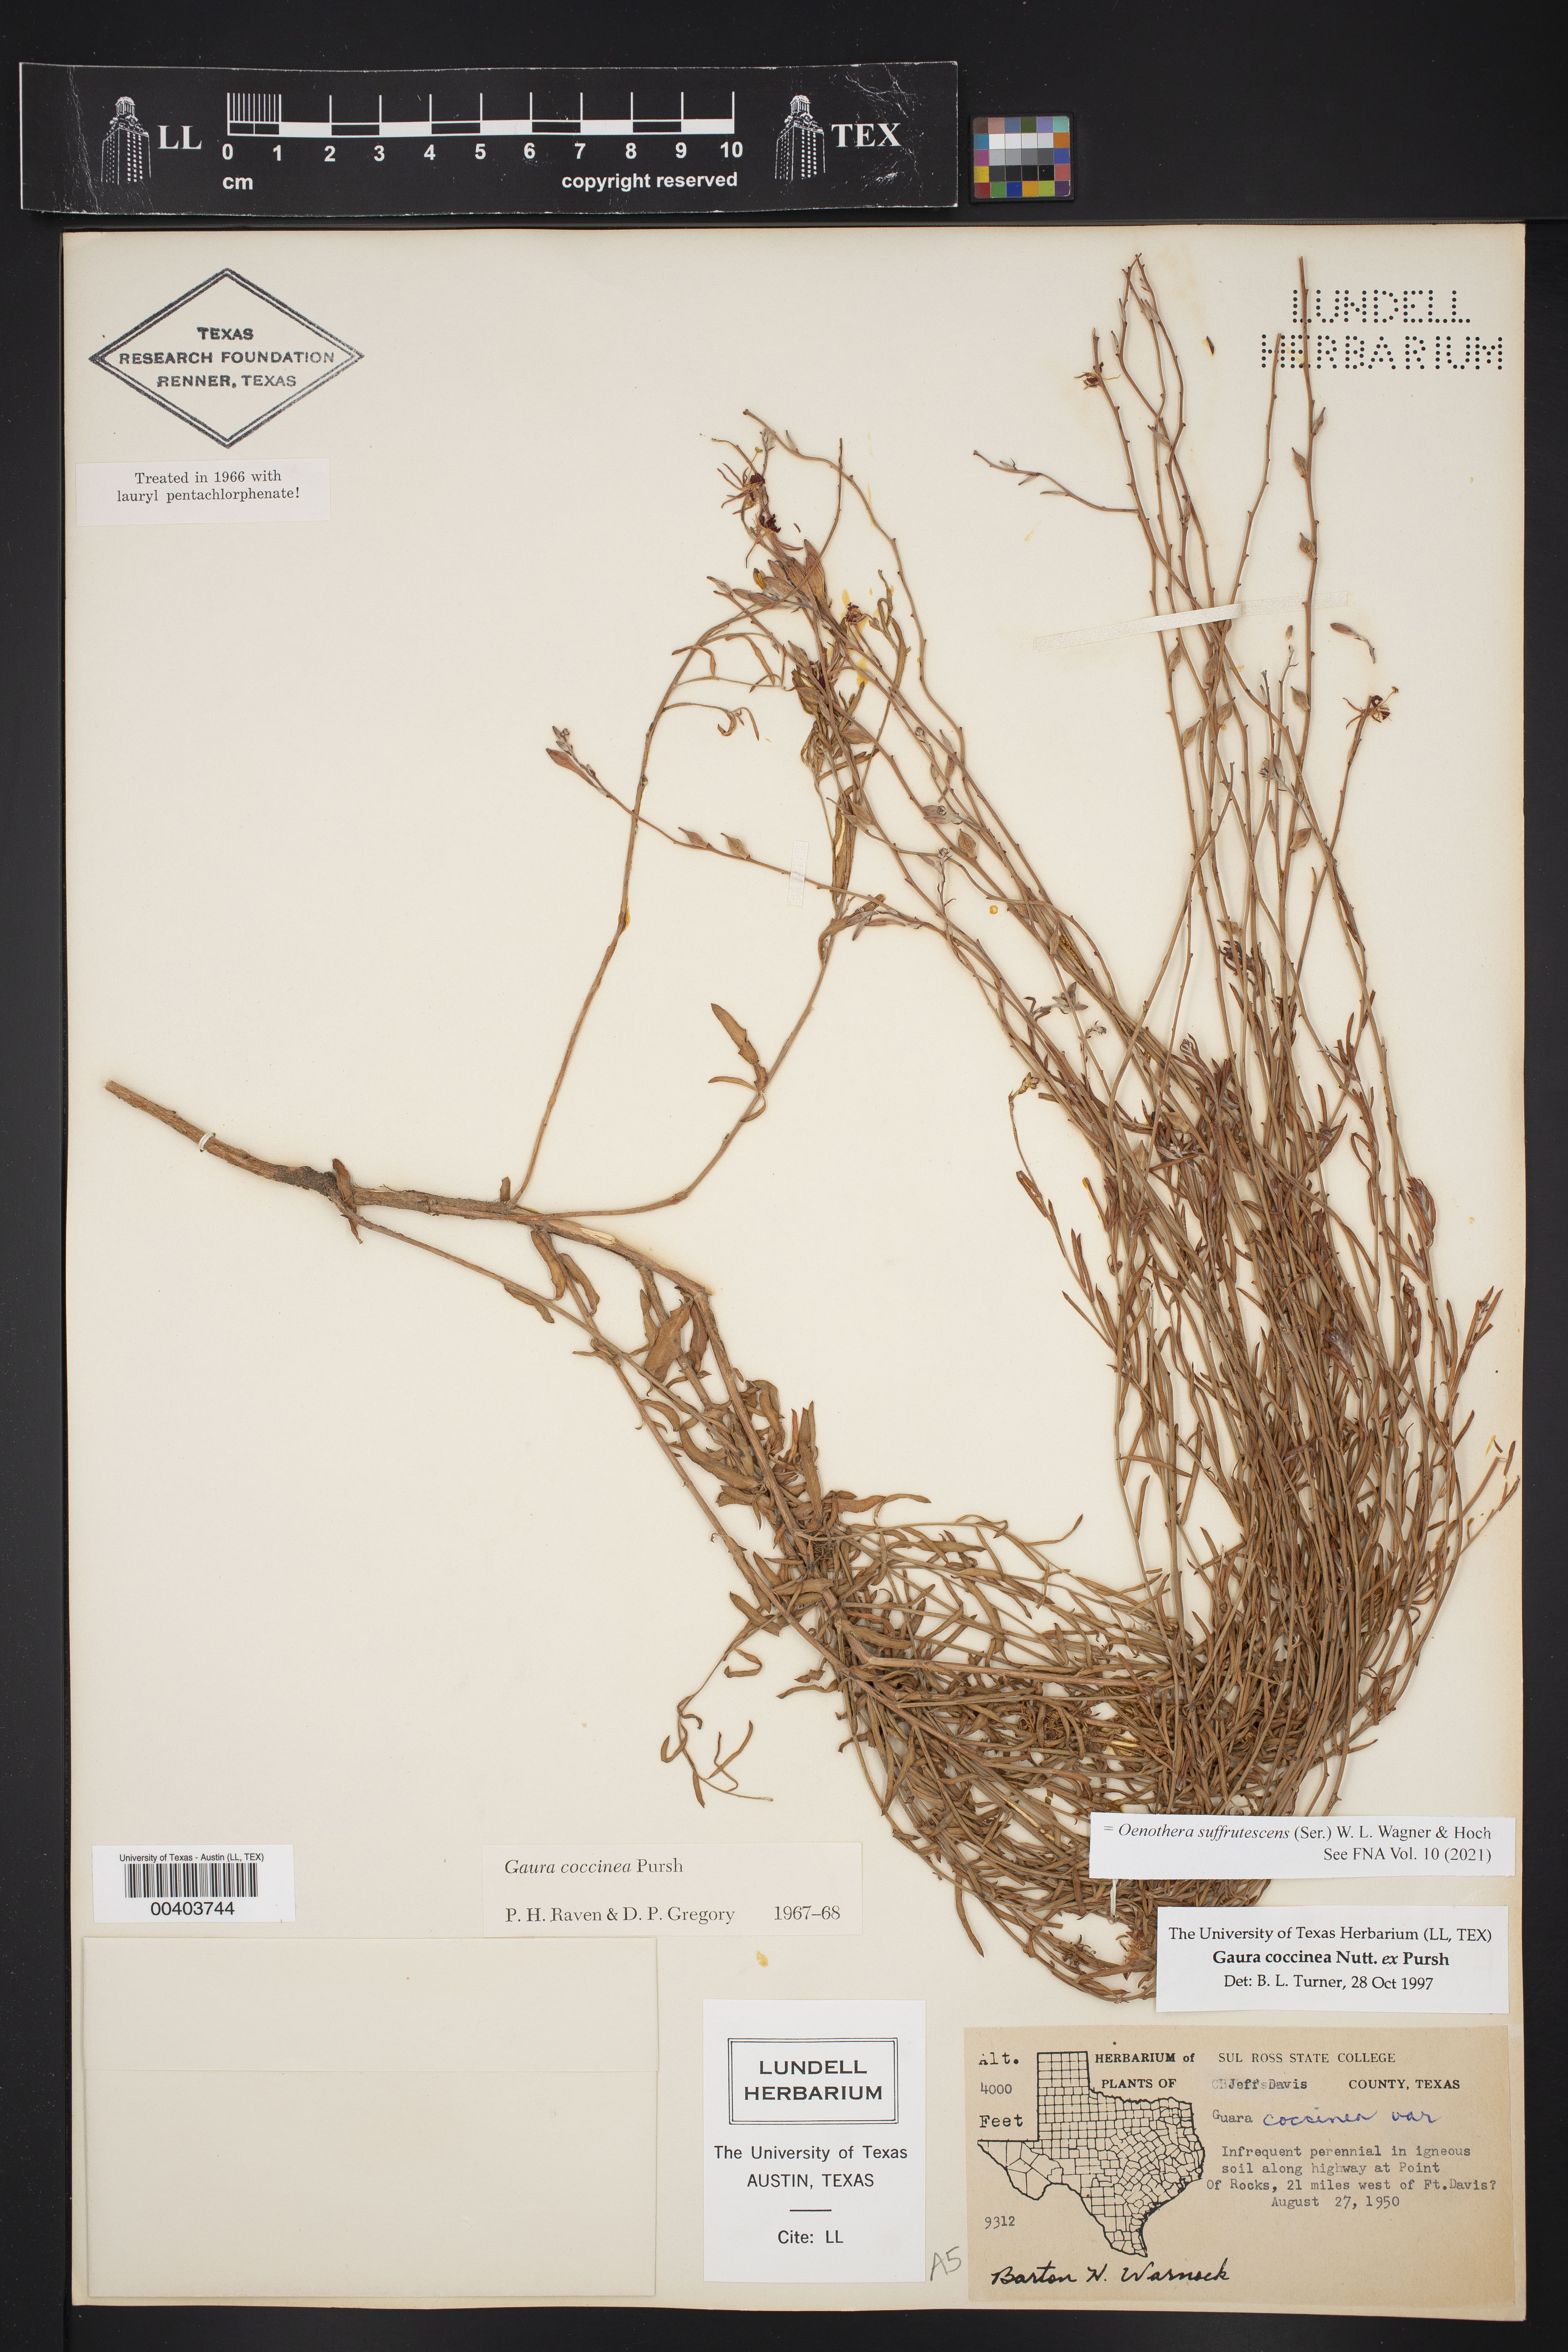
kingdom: Plantae
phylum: Tracheophyta
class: Magnoliopsida
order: Myrtales
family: Onagraceae
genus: Oenothera
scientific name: Oenothera suffrutescens
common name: Scarlet beeblossom
